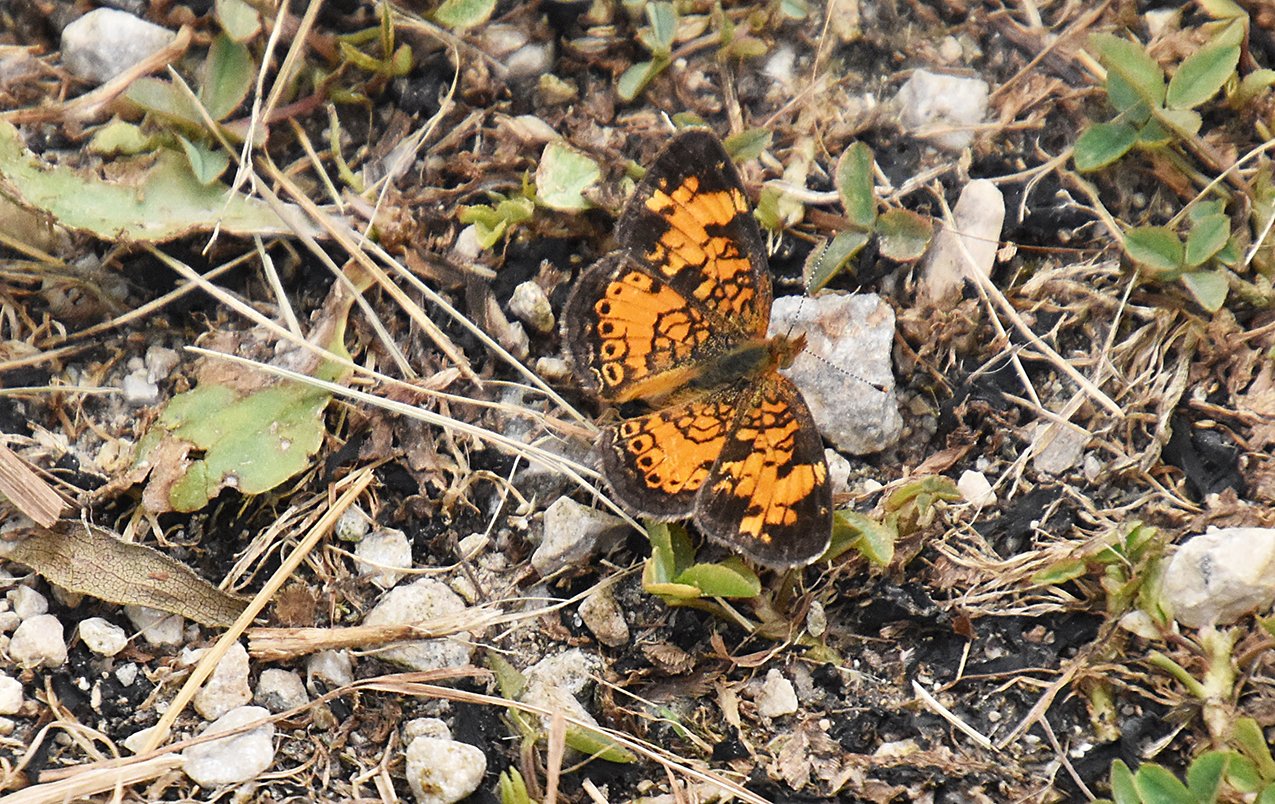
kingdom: Animalia
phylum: Arthropoda
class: Insecta
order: Lepidoptera
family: Nymphalidae
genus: Phyciodes
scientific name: Phyciodes tharos
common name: Northern Crescent
